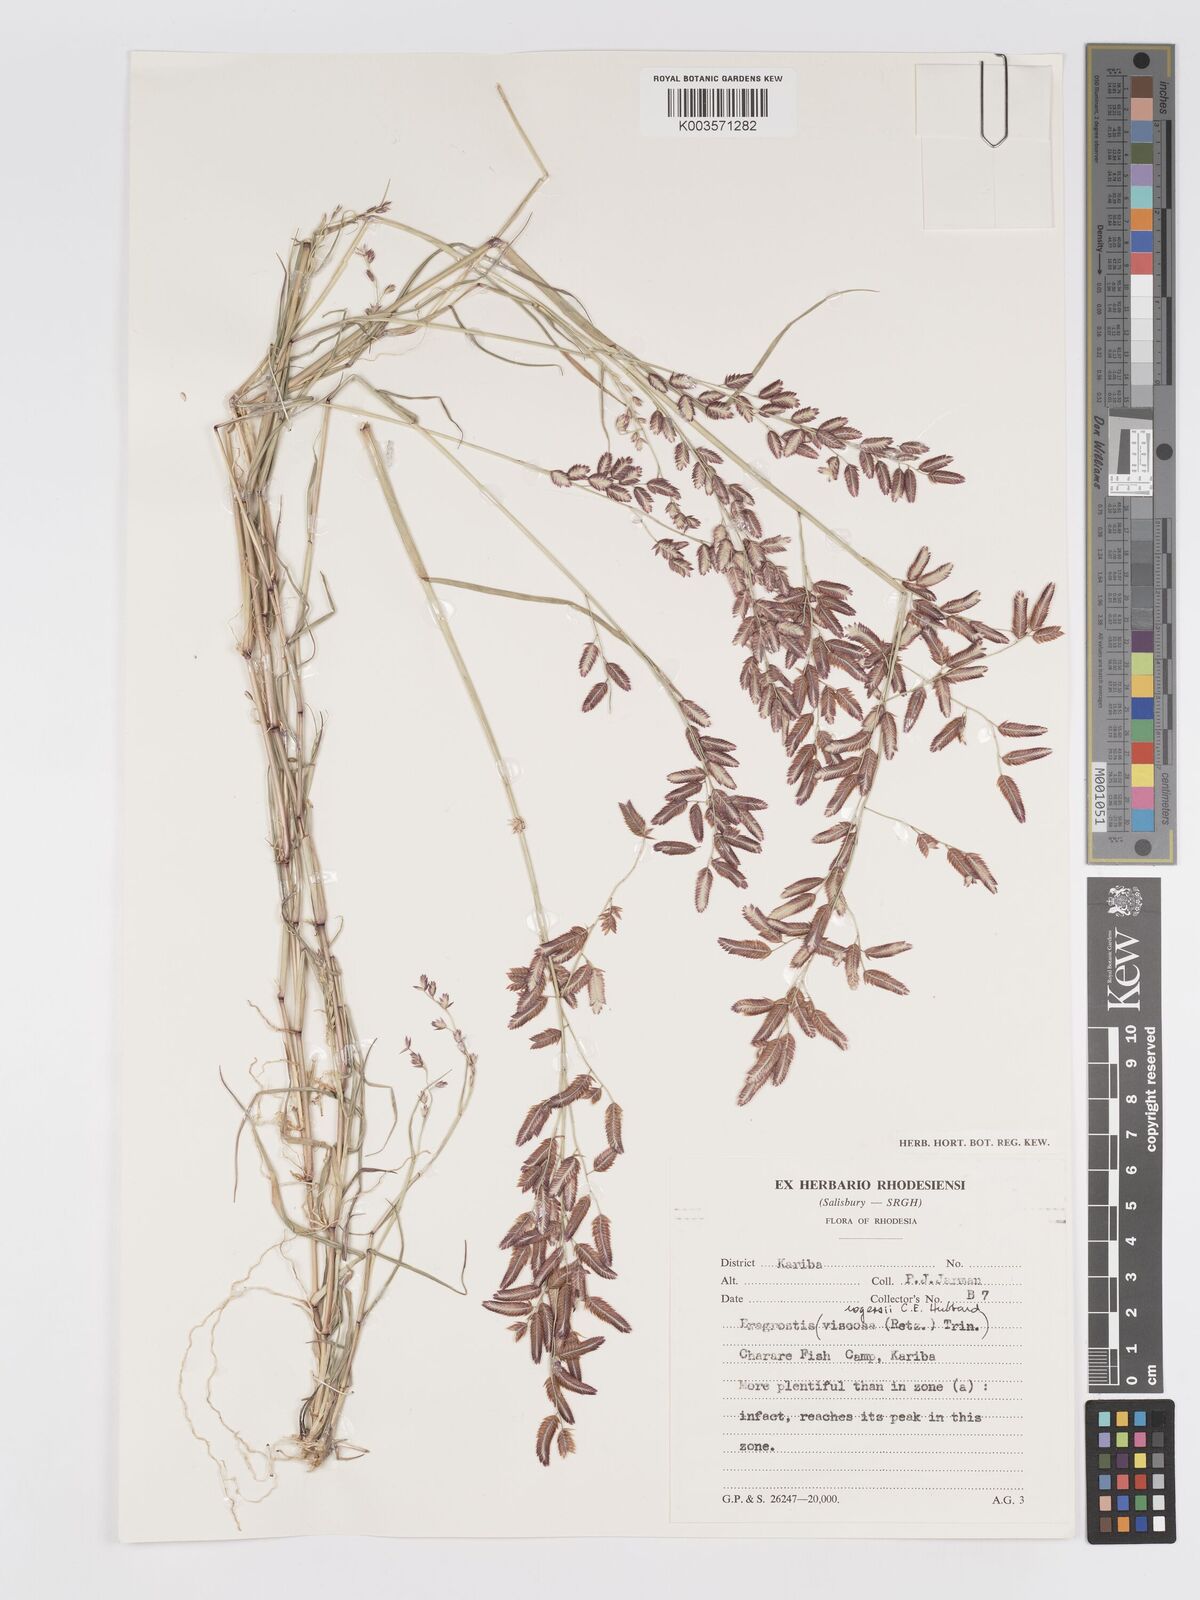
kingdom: Plantae
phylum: Tracheophyta
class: Liliopsida
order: Poales
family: Poaceae
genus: Eragrostis
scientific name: Eragrostis rogersii
